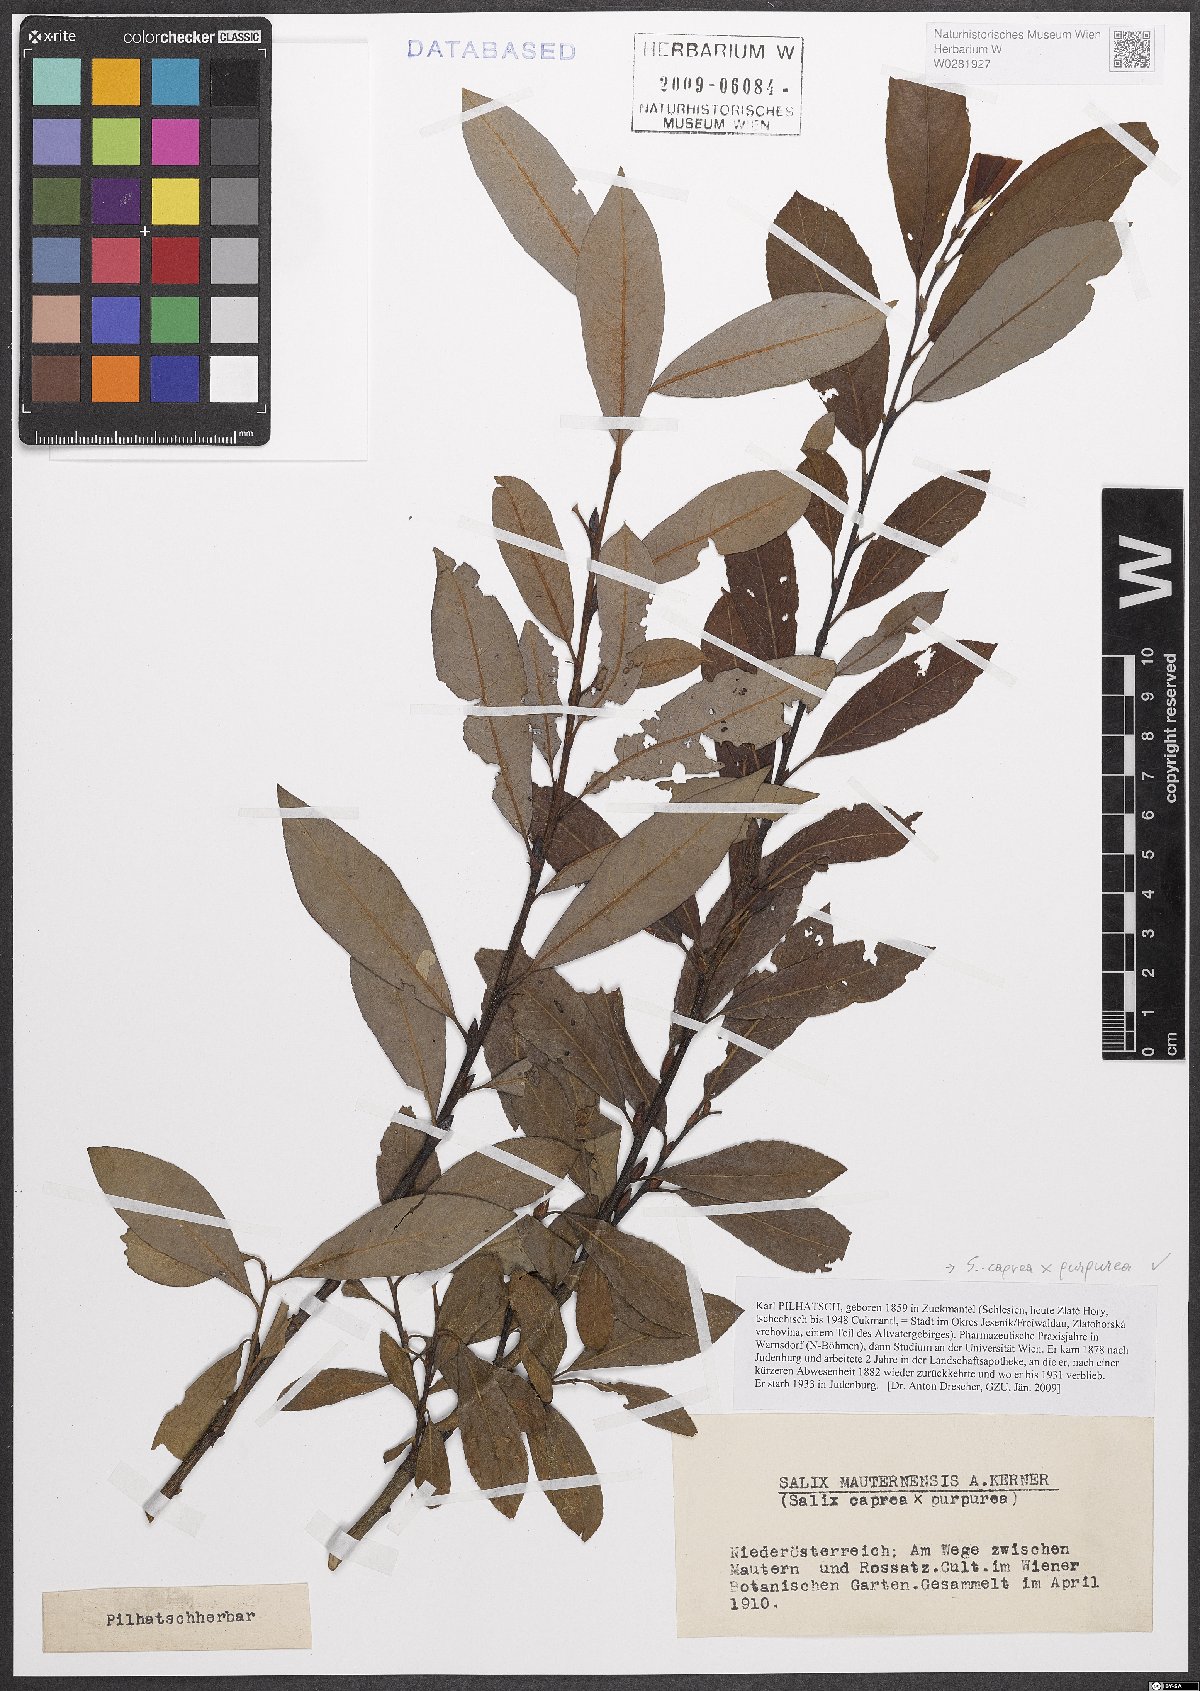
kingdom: Plantae
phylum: Tracheophyta
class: Magnoliopsida
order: Malpighiales
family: Salicaceae
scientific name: Salicaceae
